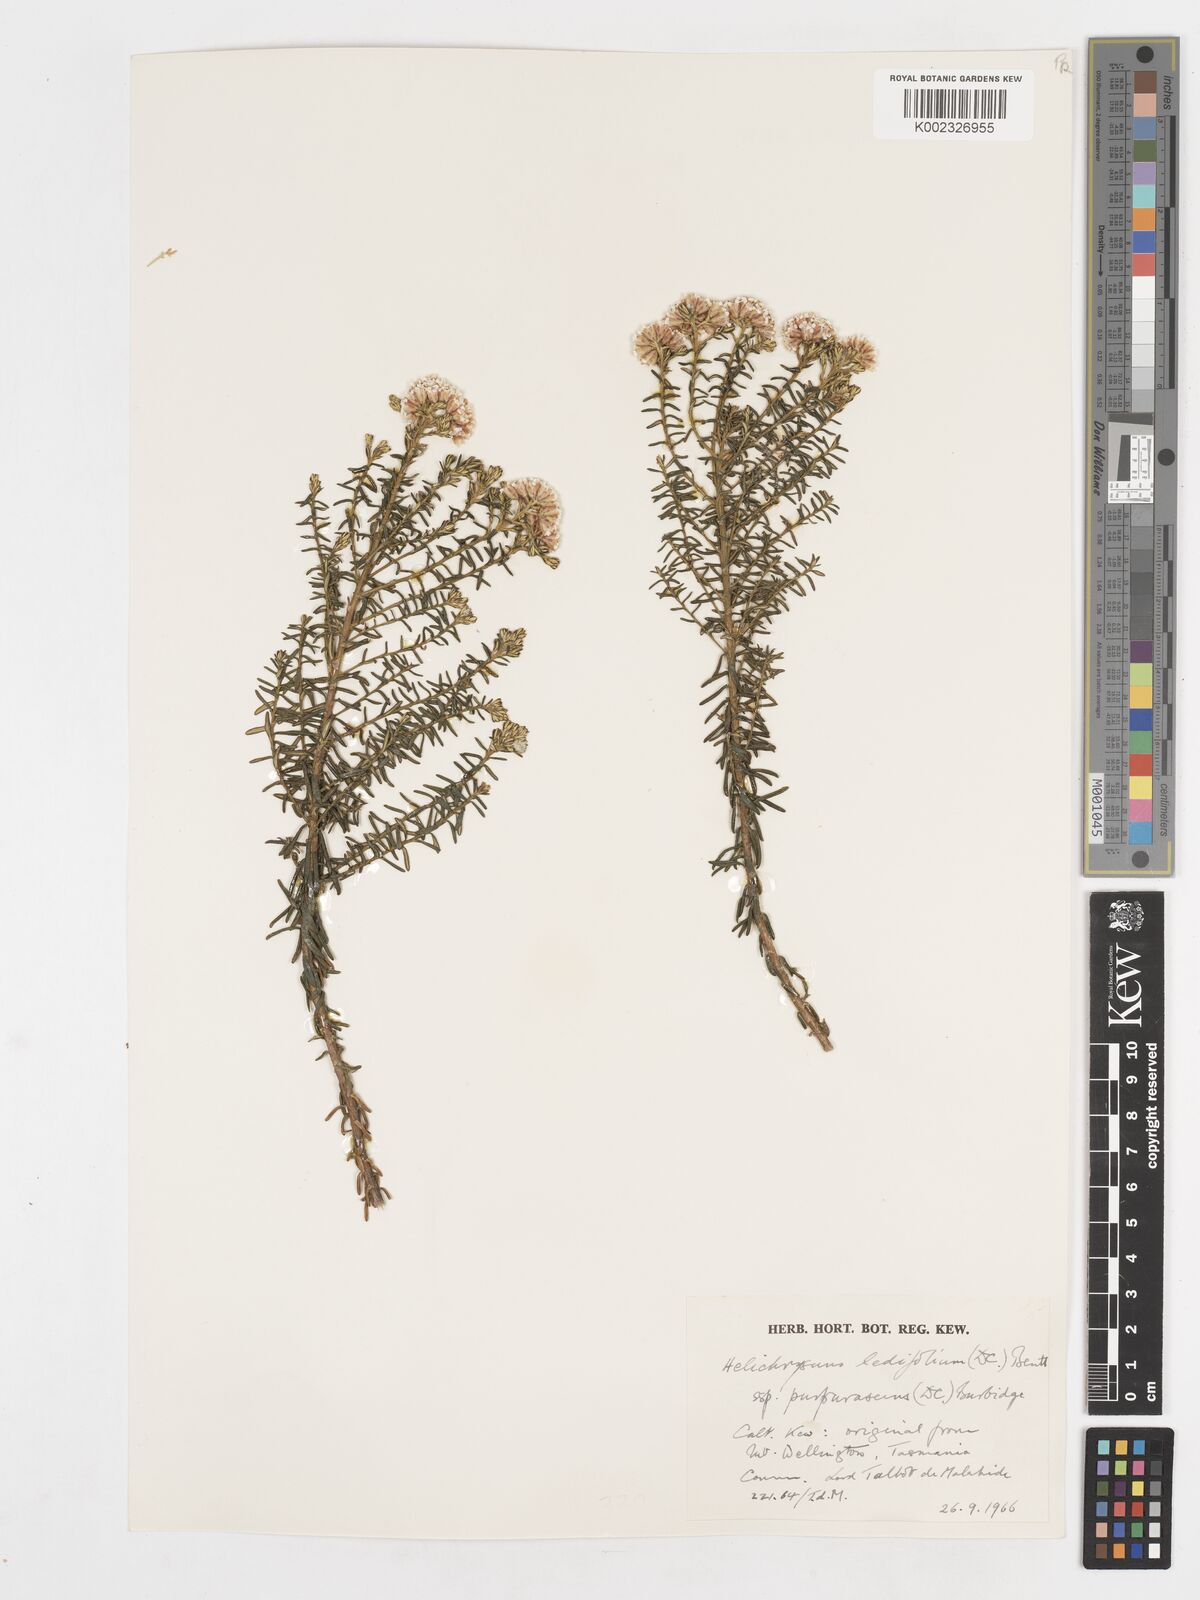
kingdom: Plantae
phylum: Tracheophyta
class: Magnoliopsida
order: Asterales
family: Asteraceae
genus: Ozothamnus
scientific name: Ozothamnus ledifolius
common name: Kerosene-weed
